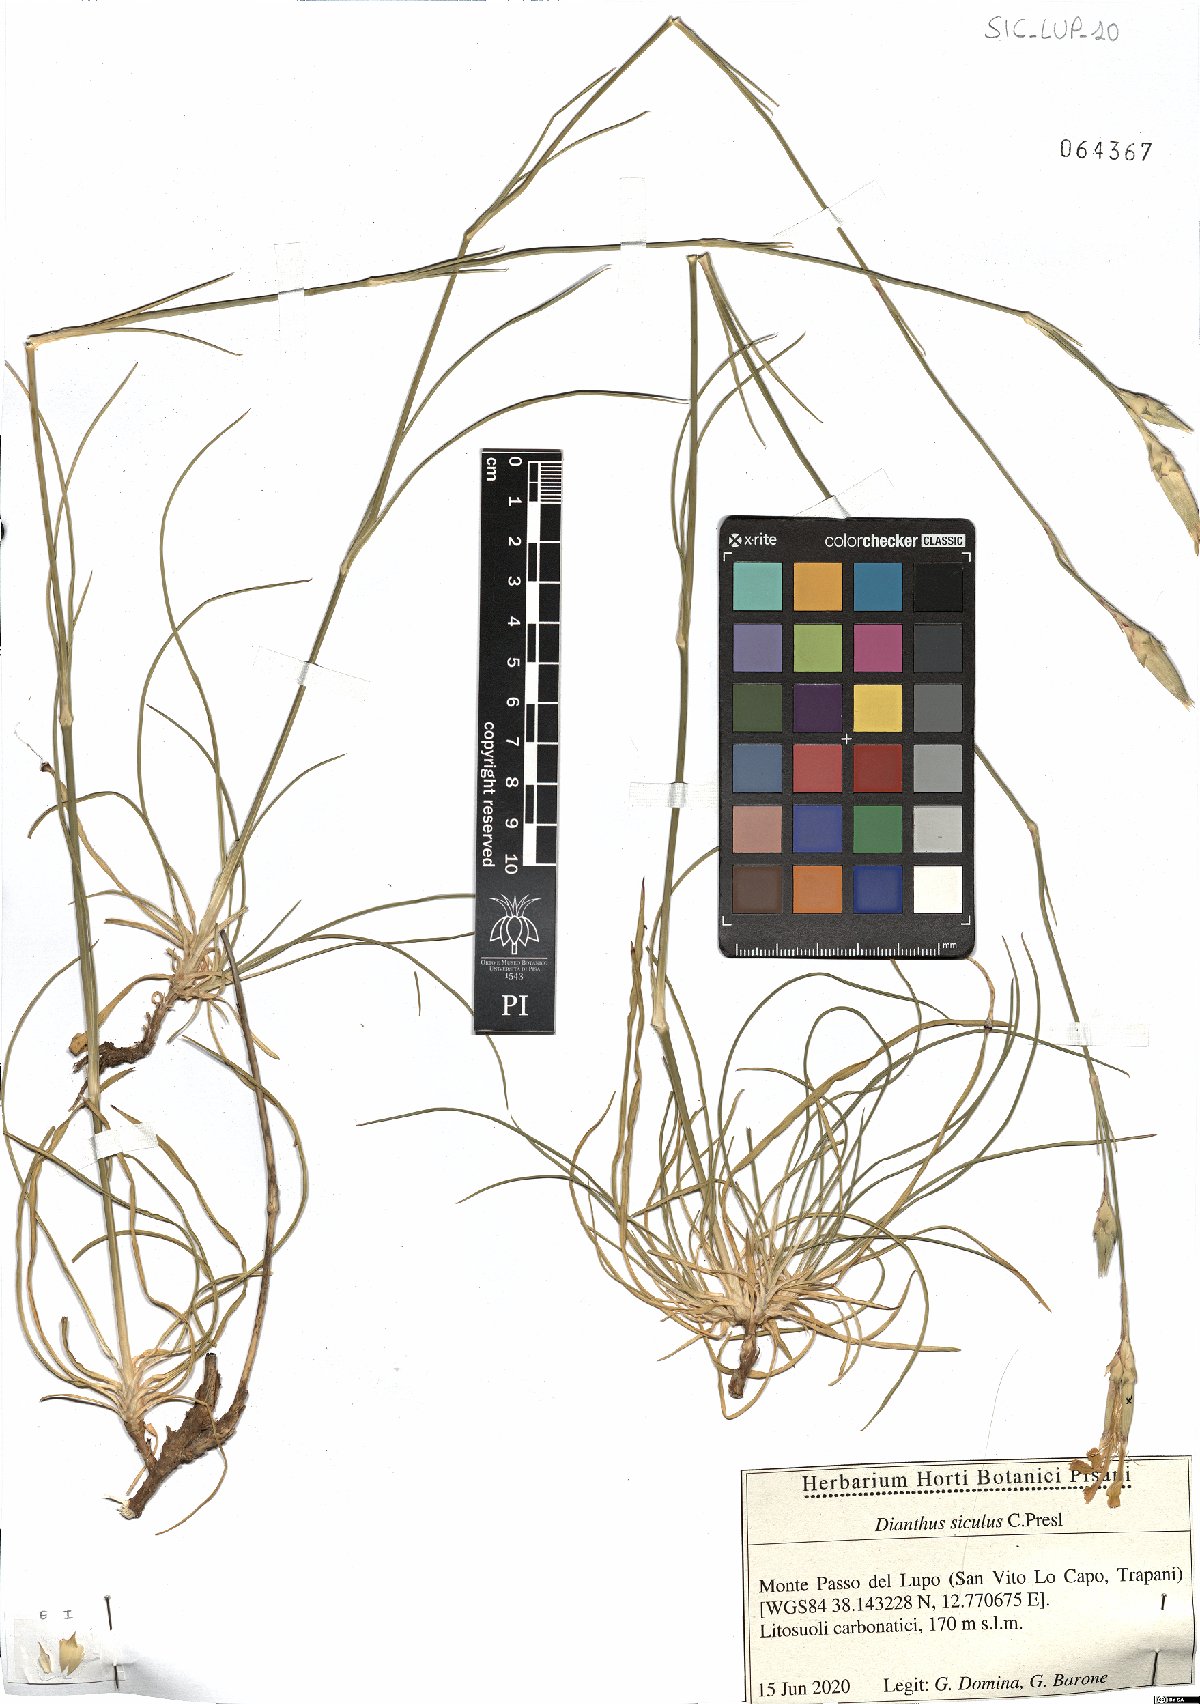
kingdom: Plantae
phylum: Tracheophyta
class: Magnoliopsida
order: Caryophyllales
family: Caryophyllaceae
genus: Dianthus
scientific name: Dianthus siculus
